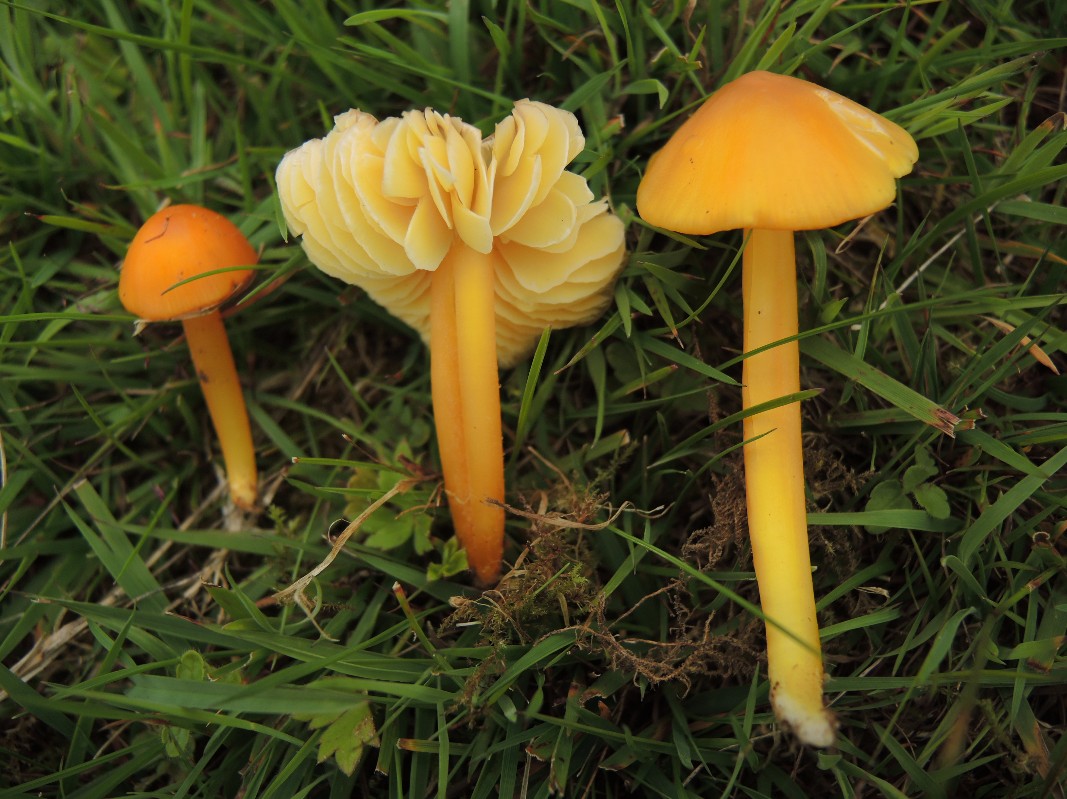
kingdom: Fungi
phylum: Basidiomycota
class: Agaricomycetes
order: Agaricales
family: Hygrophoraceae
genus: Hygrocybe
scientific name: Hygrocybe chlorophana
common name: gul vokshat
